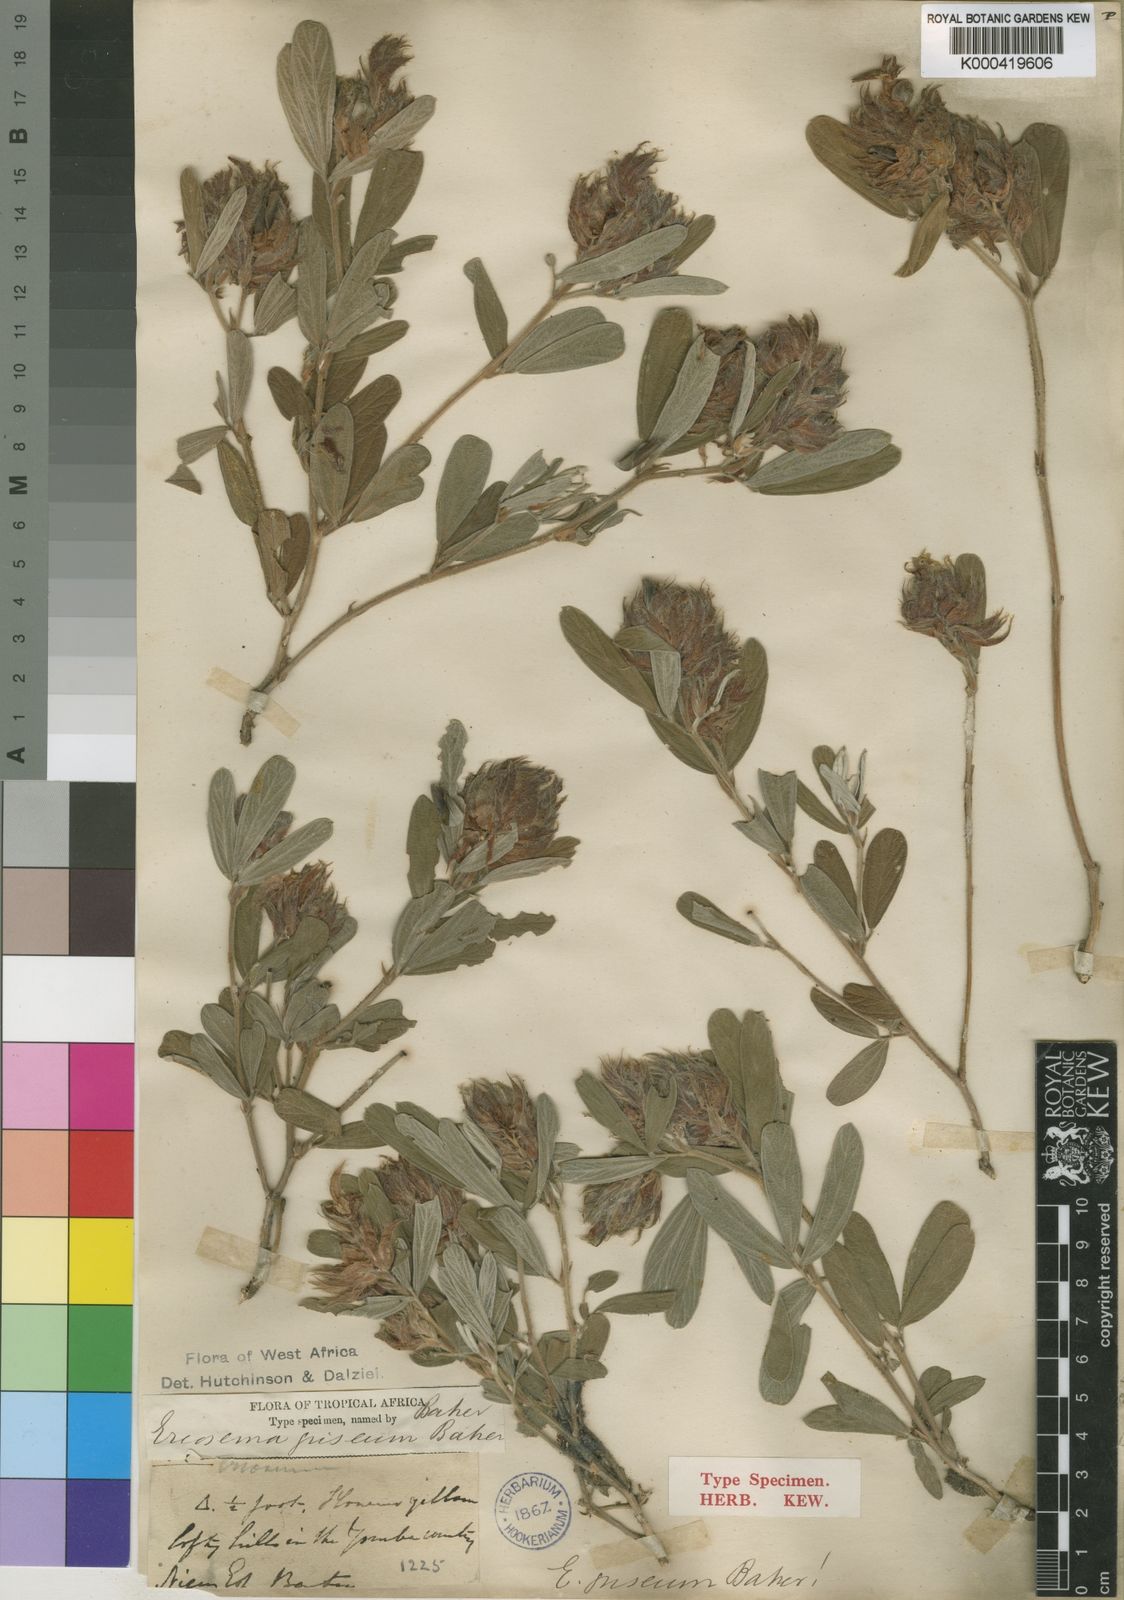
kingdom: Plantae
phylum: Tracheophyta
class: Magnoliopsida
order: Fabales
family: Fabaceae
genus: Eriosema
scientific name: Eriosema griseum
